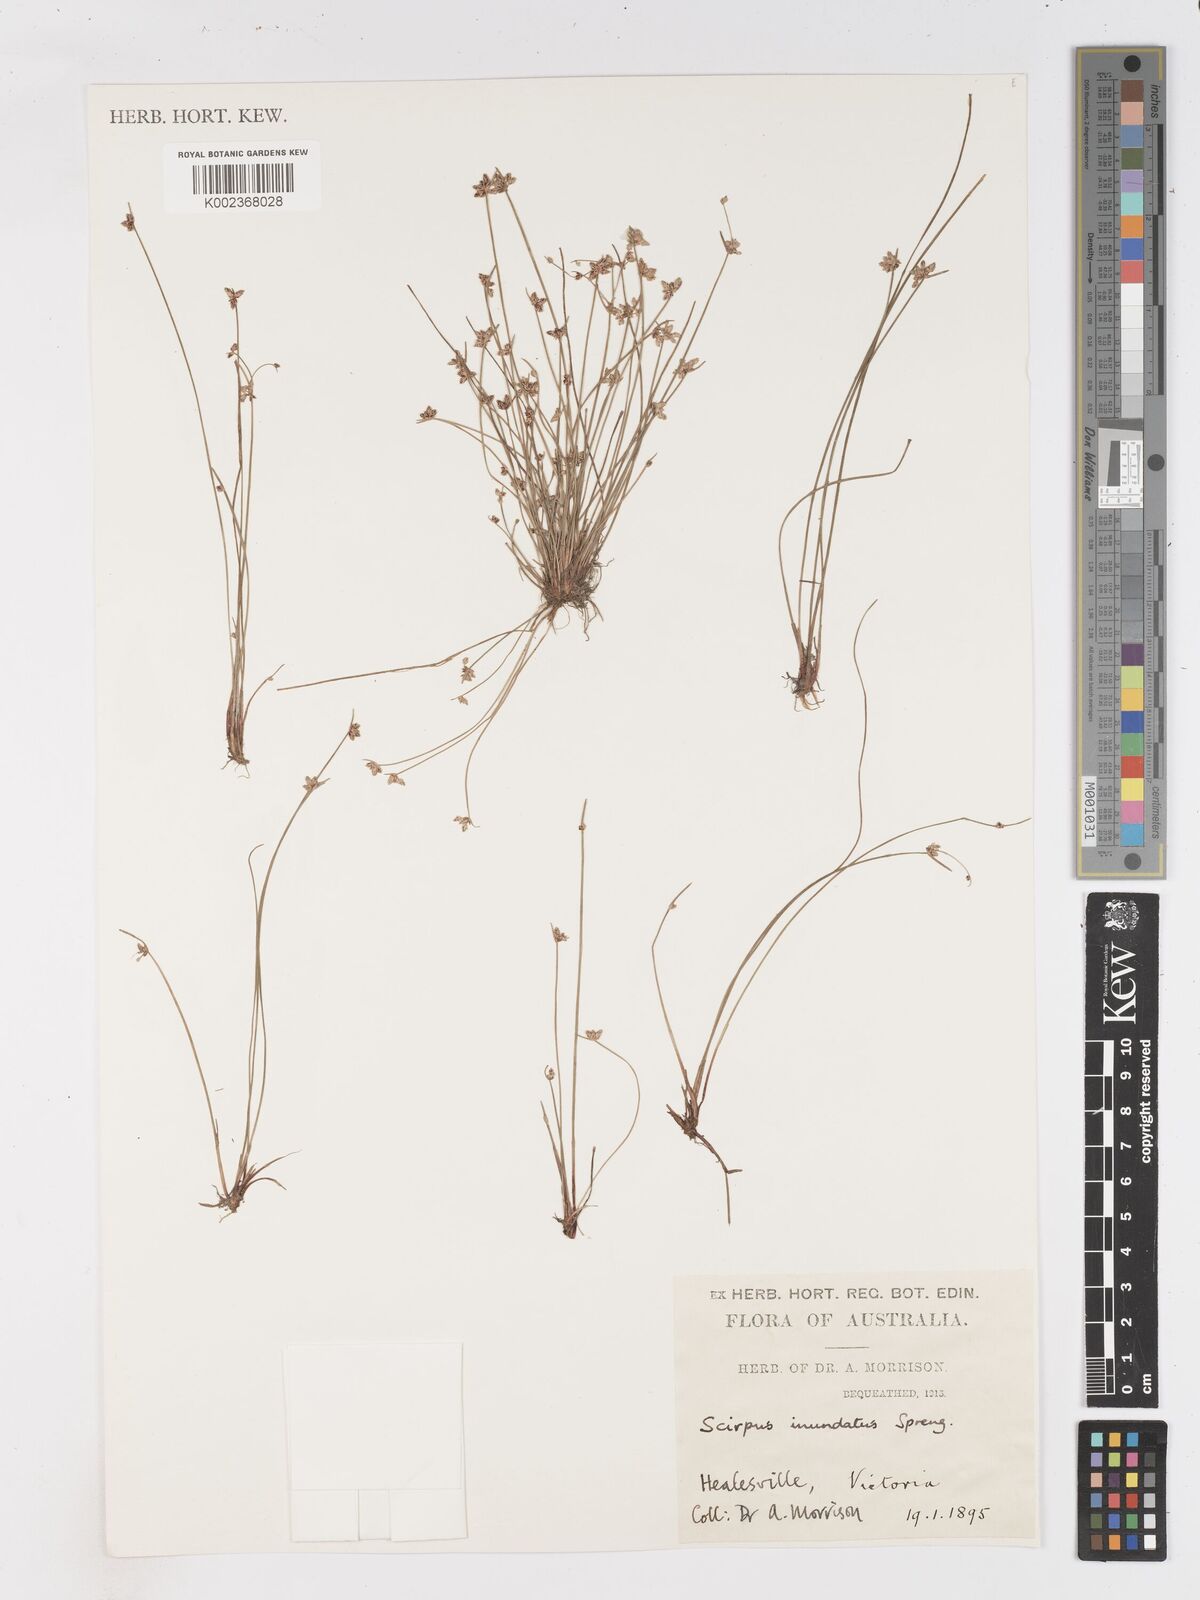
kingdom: Plantae
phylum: Tracheophyta
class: Liliopsida
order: Poales
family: Cyperaceae
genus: Isolepis
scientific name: Isolepis inundata
